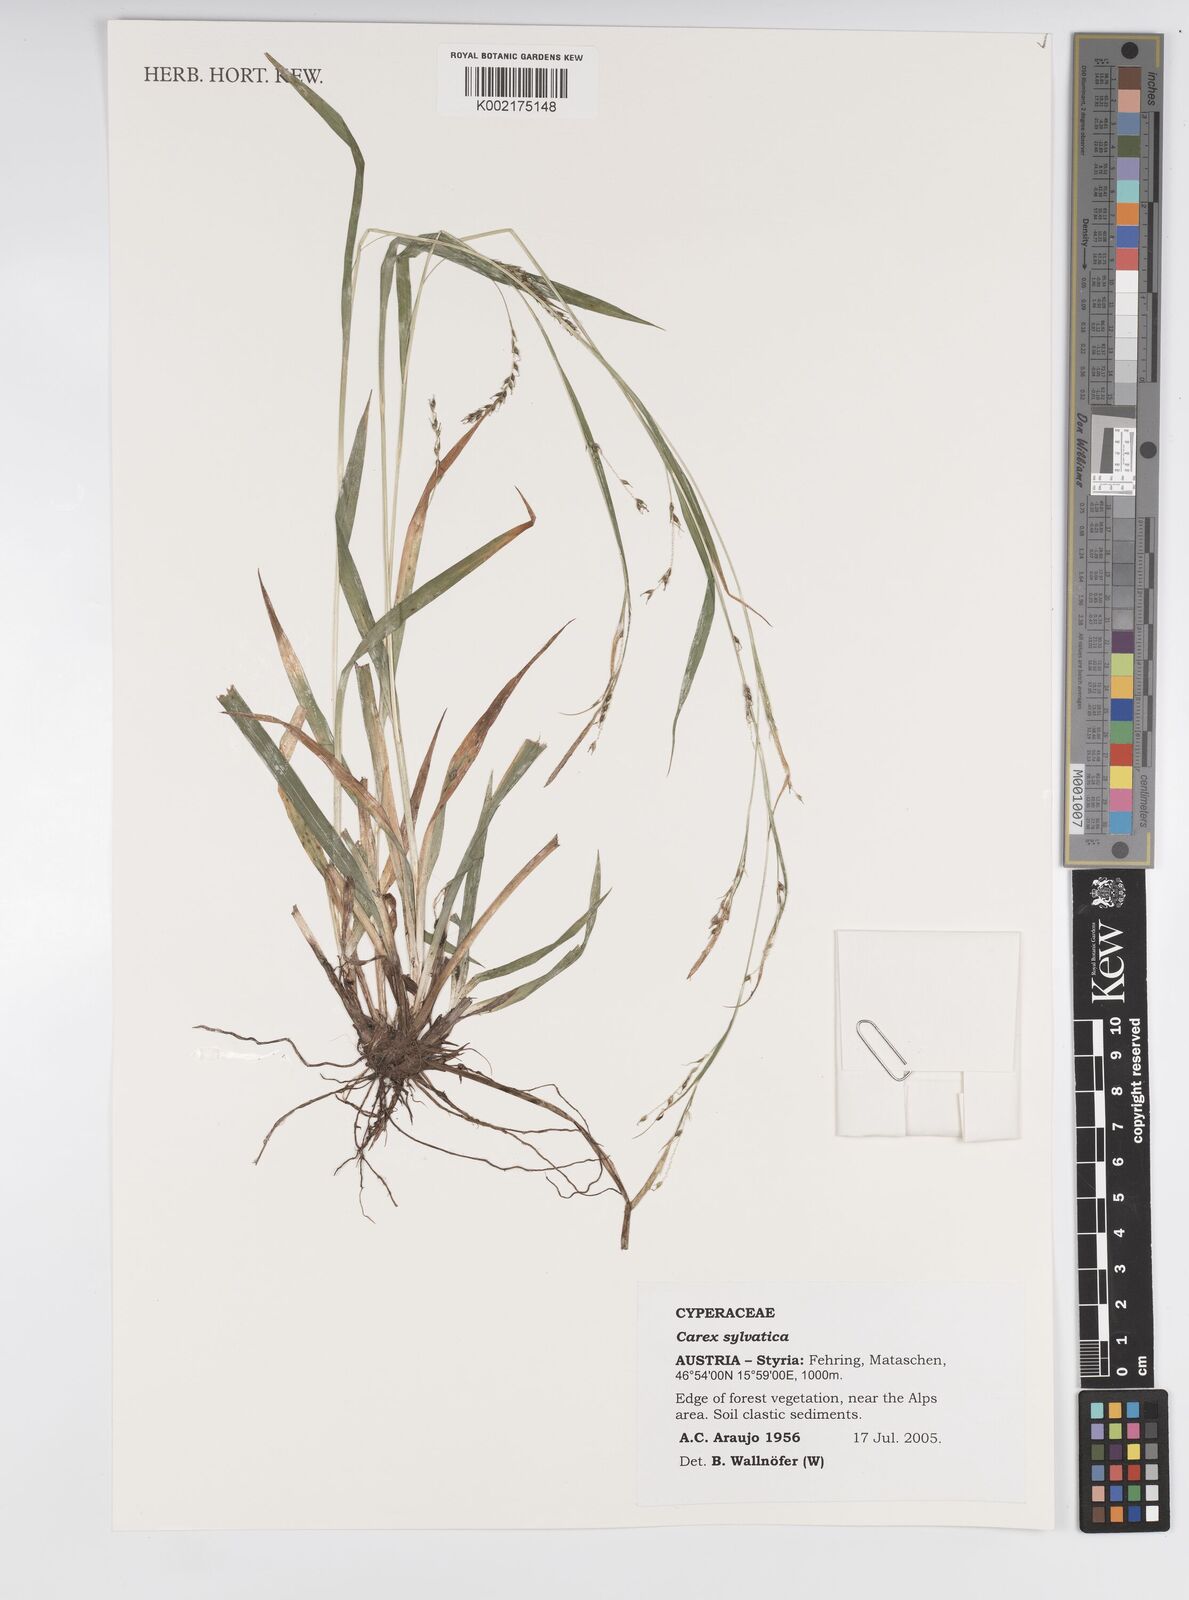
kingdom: Plantae
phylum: Tracheophyta
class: Liliopsida
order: Poales
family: Cyperaceae
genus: Carex
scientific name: Carex sylvatica
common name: Wood-sedge
